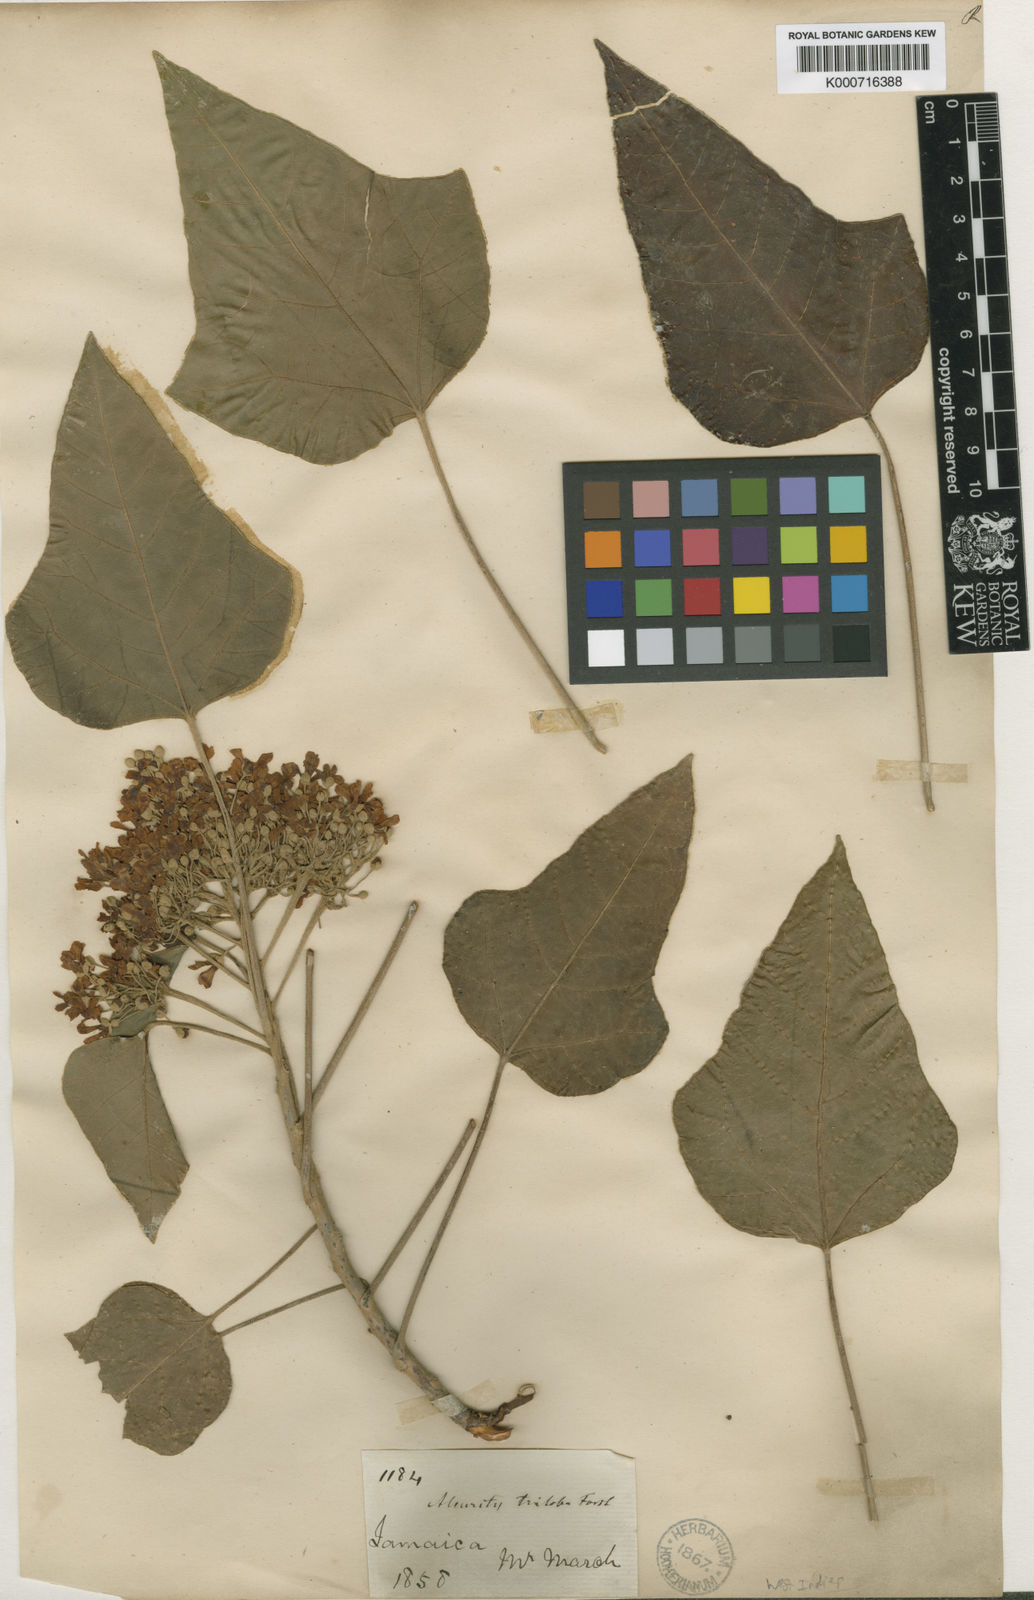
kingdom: Plantae
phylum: Tracheophyta
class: Magnoliopsida
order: Malpighiales
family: Euphorbiaceae
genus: Aleurites
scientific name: Aleurites
